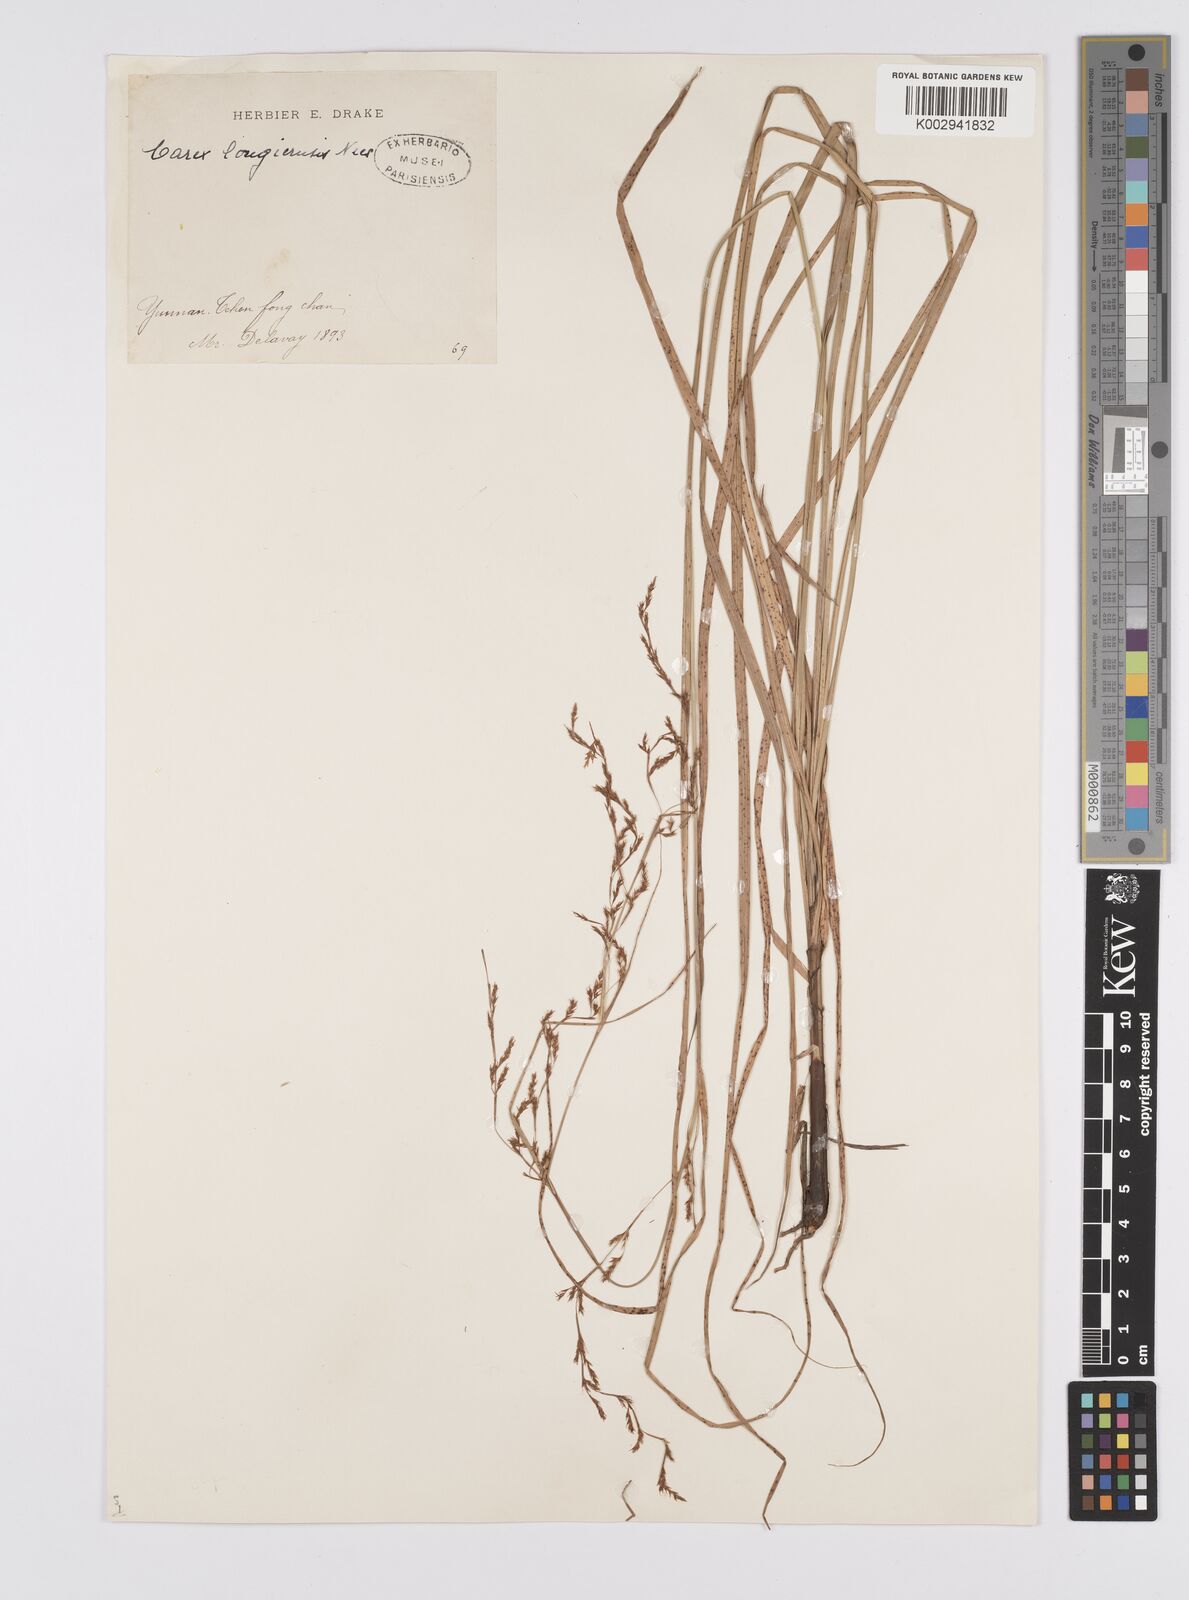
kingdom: Plantae
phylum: Tracheophyta
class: Liliopsida
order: Poales
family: Cyperaceae
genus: Carex
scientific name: Carex longicruris
